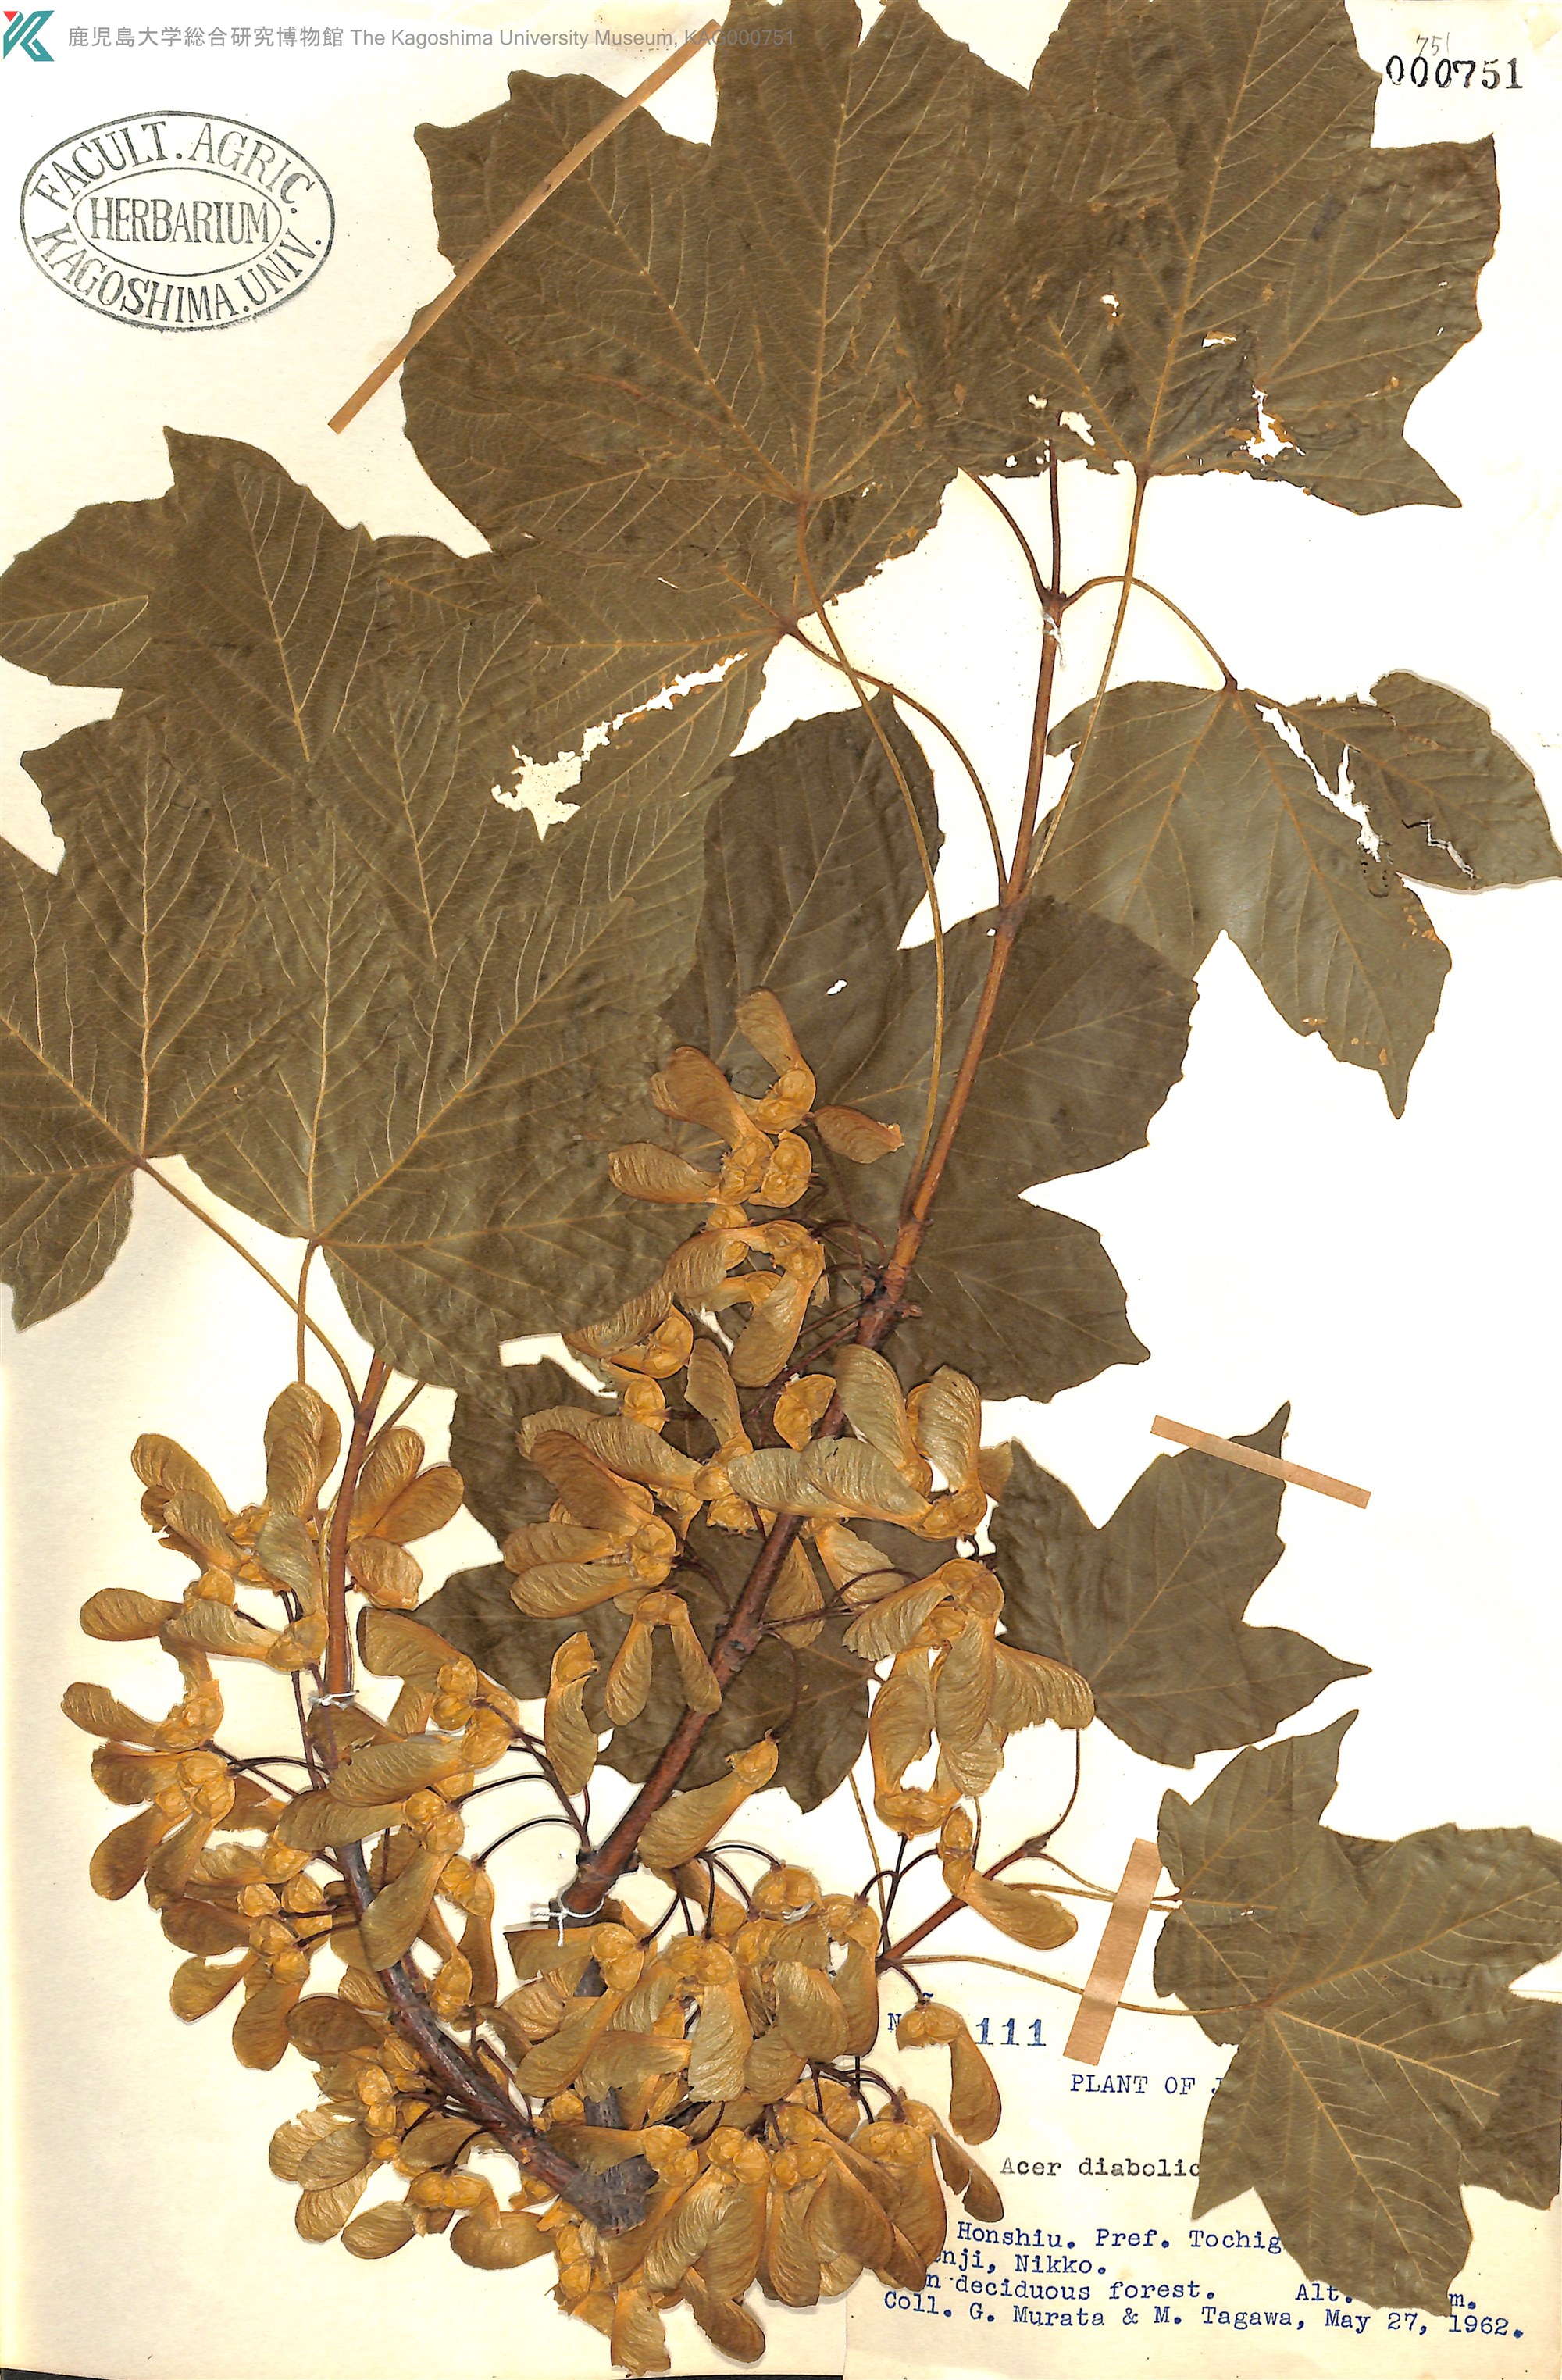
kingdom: Plantae
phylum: Tracheophyta
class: Magnoliopsida
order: Sapindales
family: Sapindaceae
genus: Acer
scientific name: Acer diabolicum
